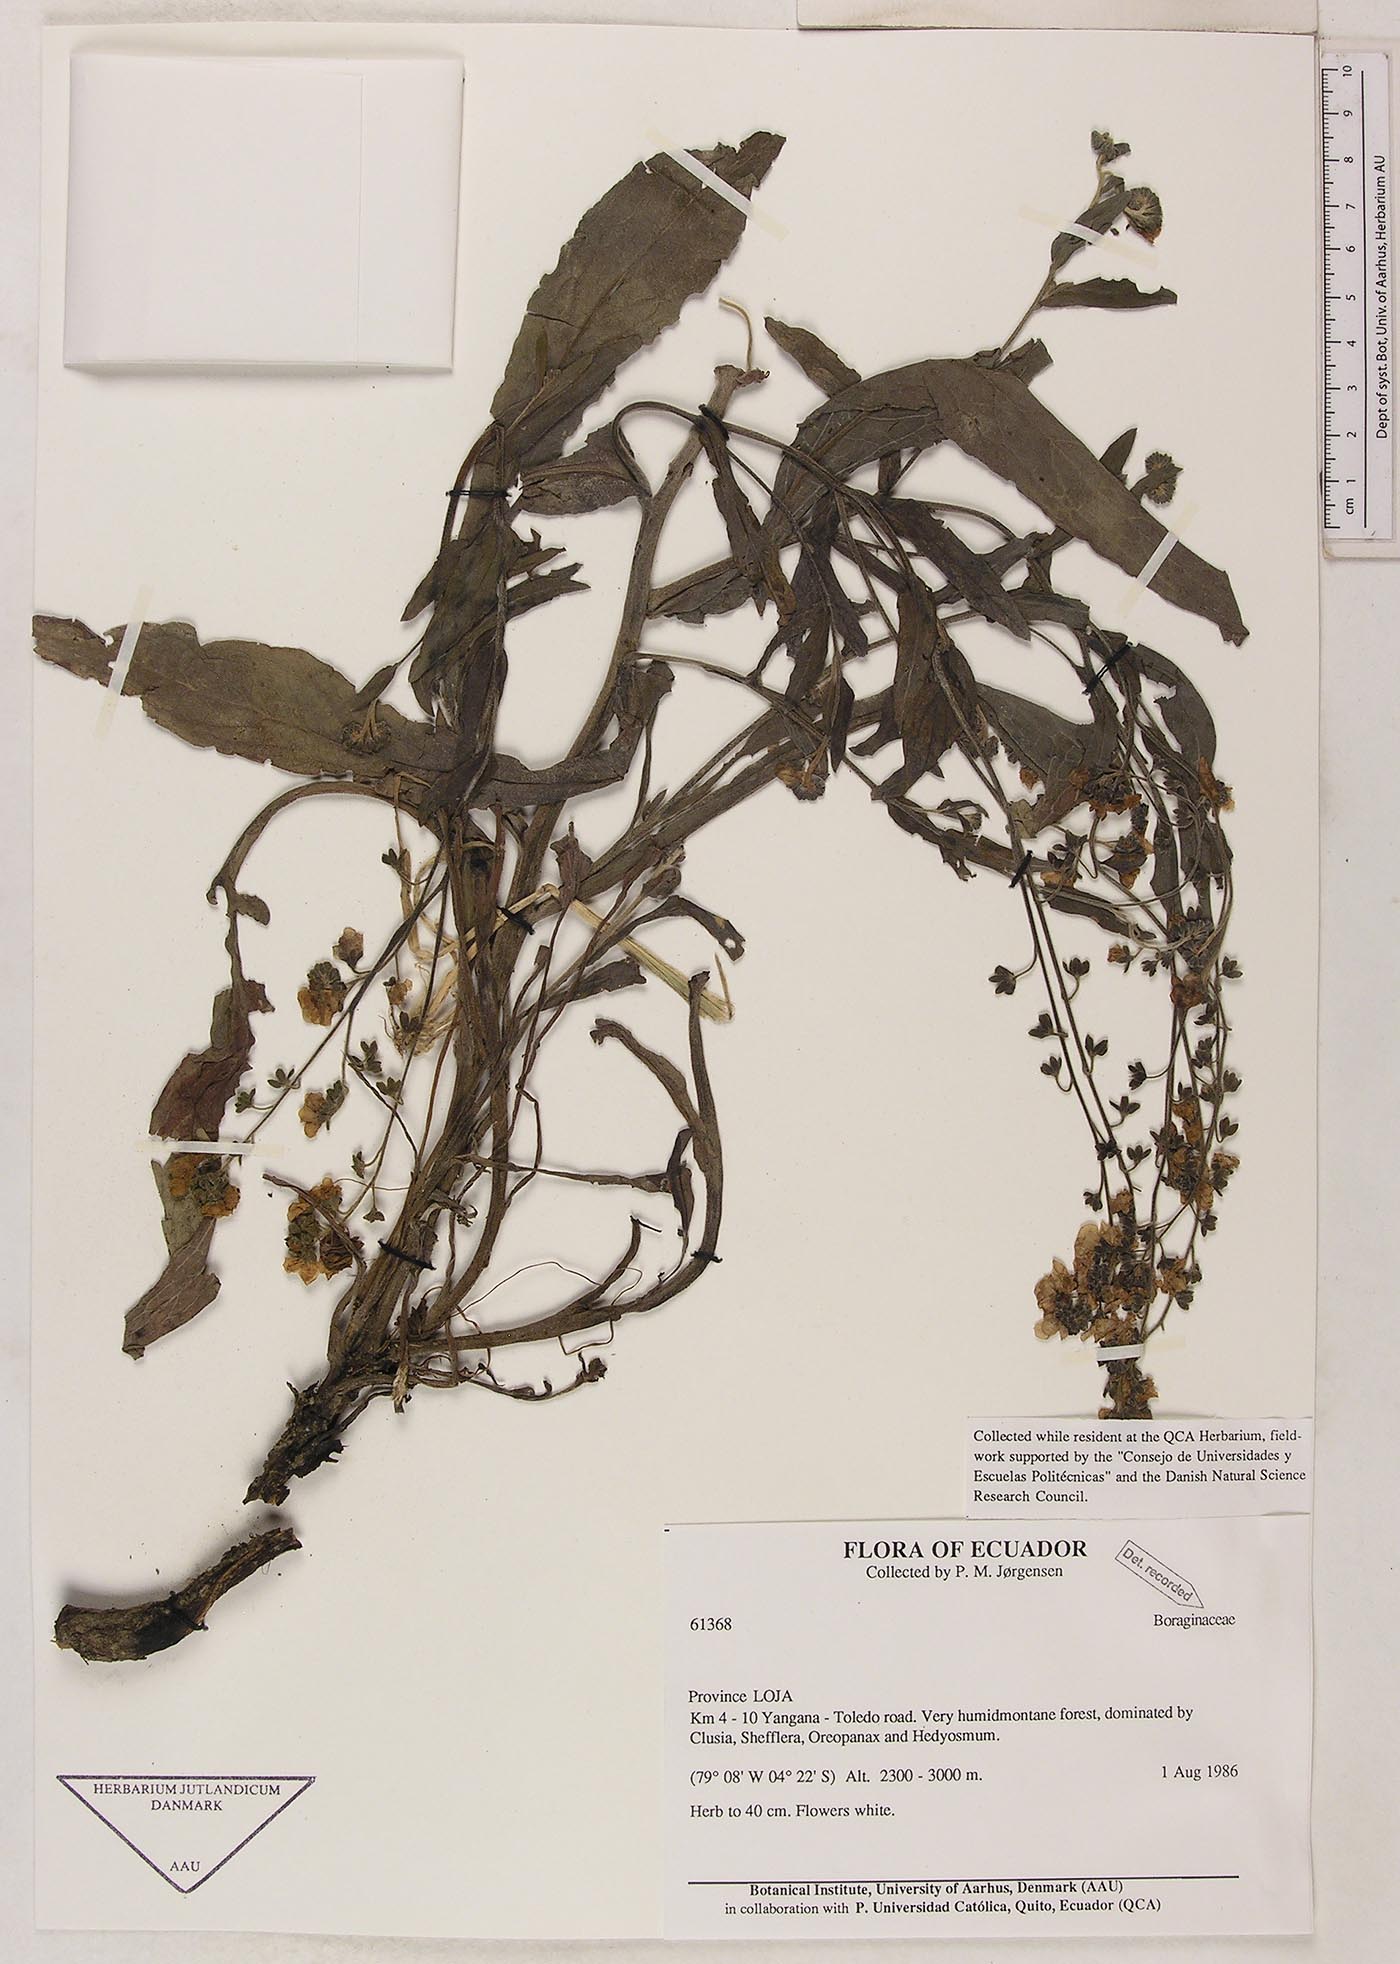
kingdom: Plantae
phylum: Tracheophyta
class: Magnoliopsida
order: Boraginales
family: Boraginaceae
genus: Cynoglossum
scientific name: Cynoglossum amabile
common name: Chinese hound's tongue
